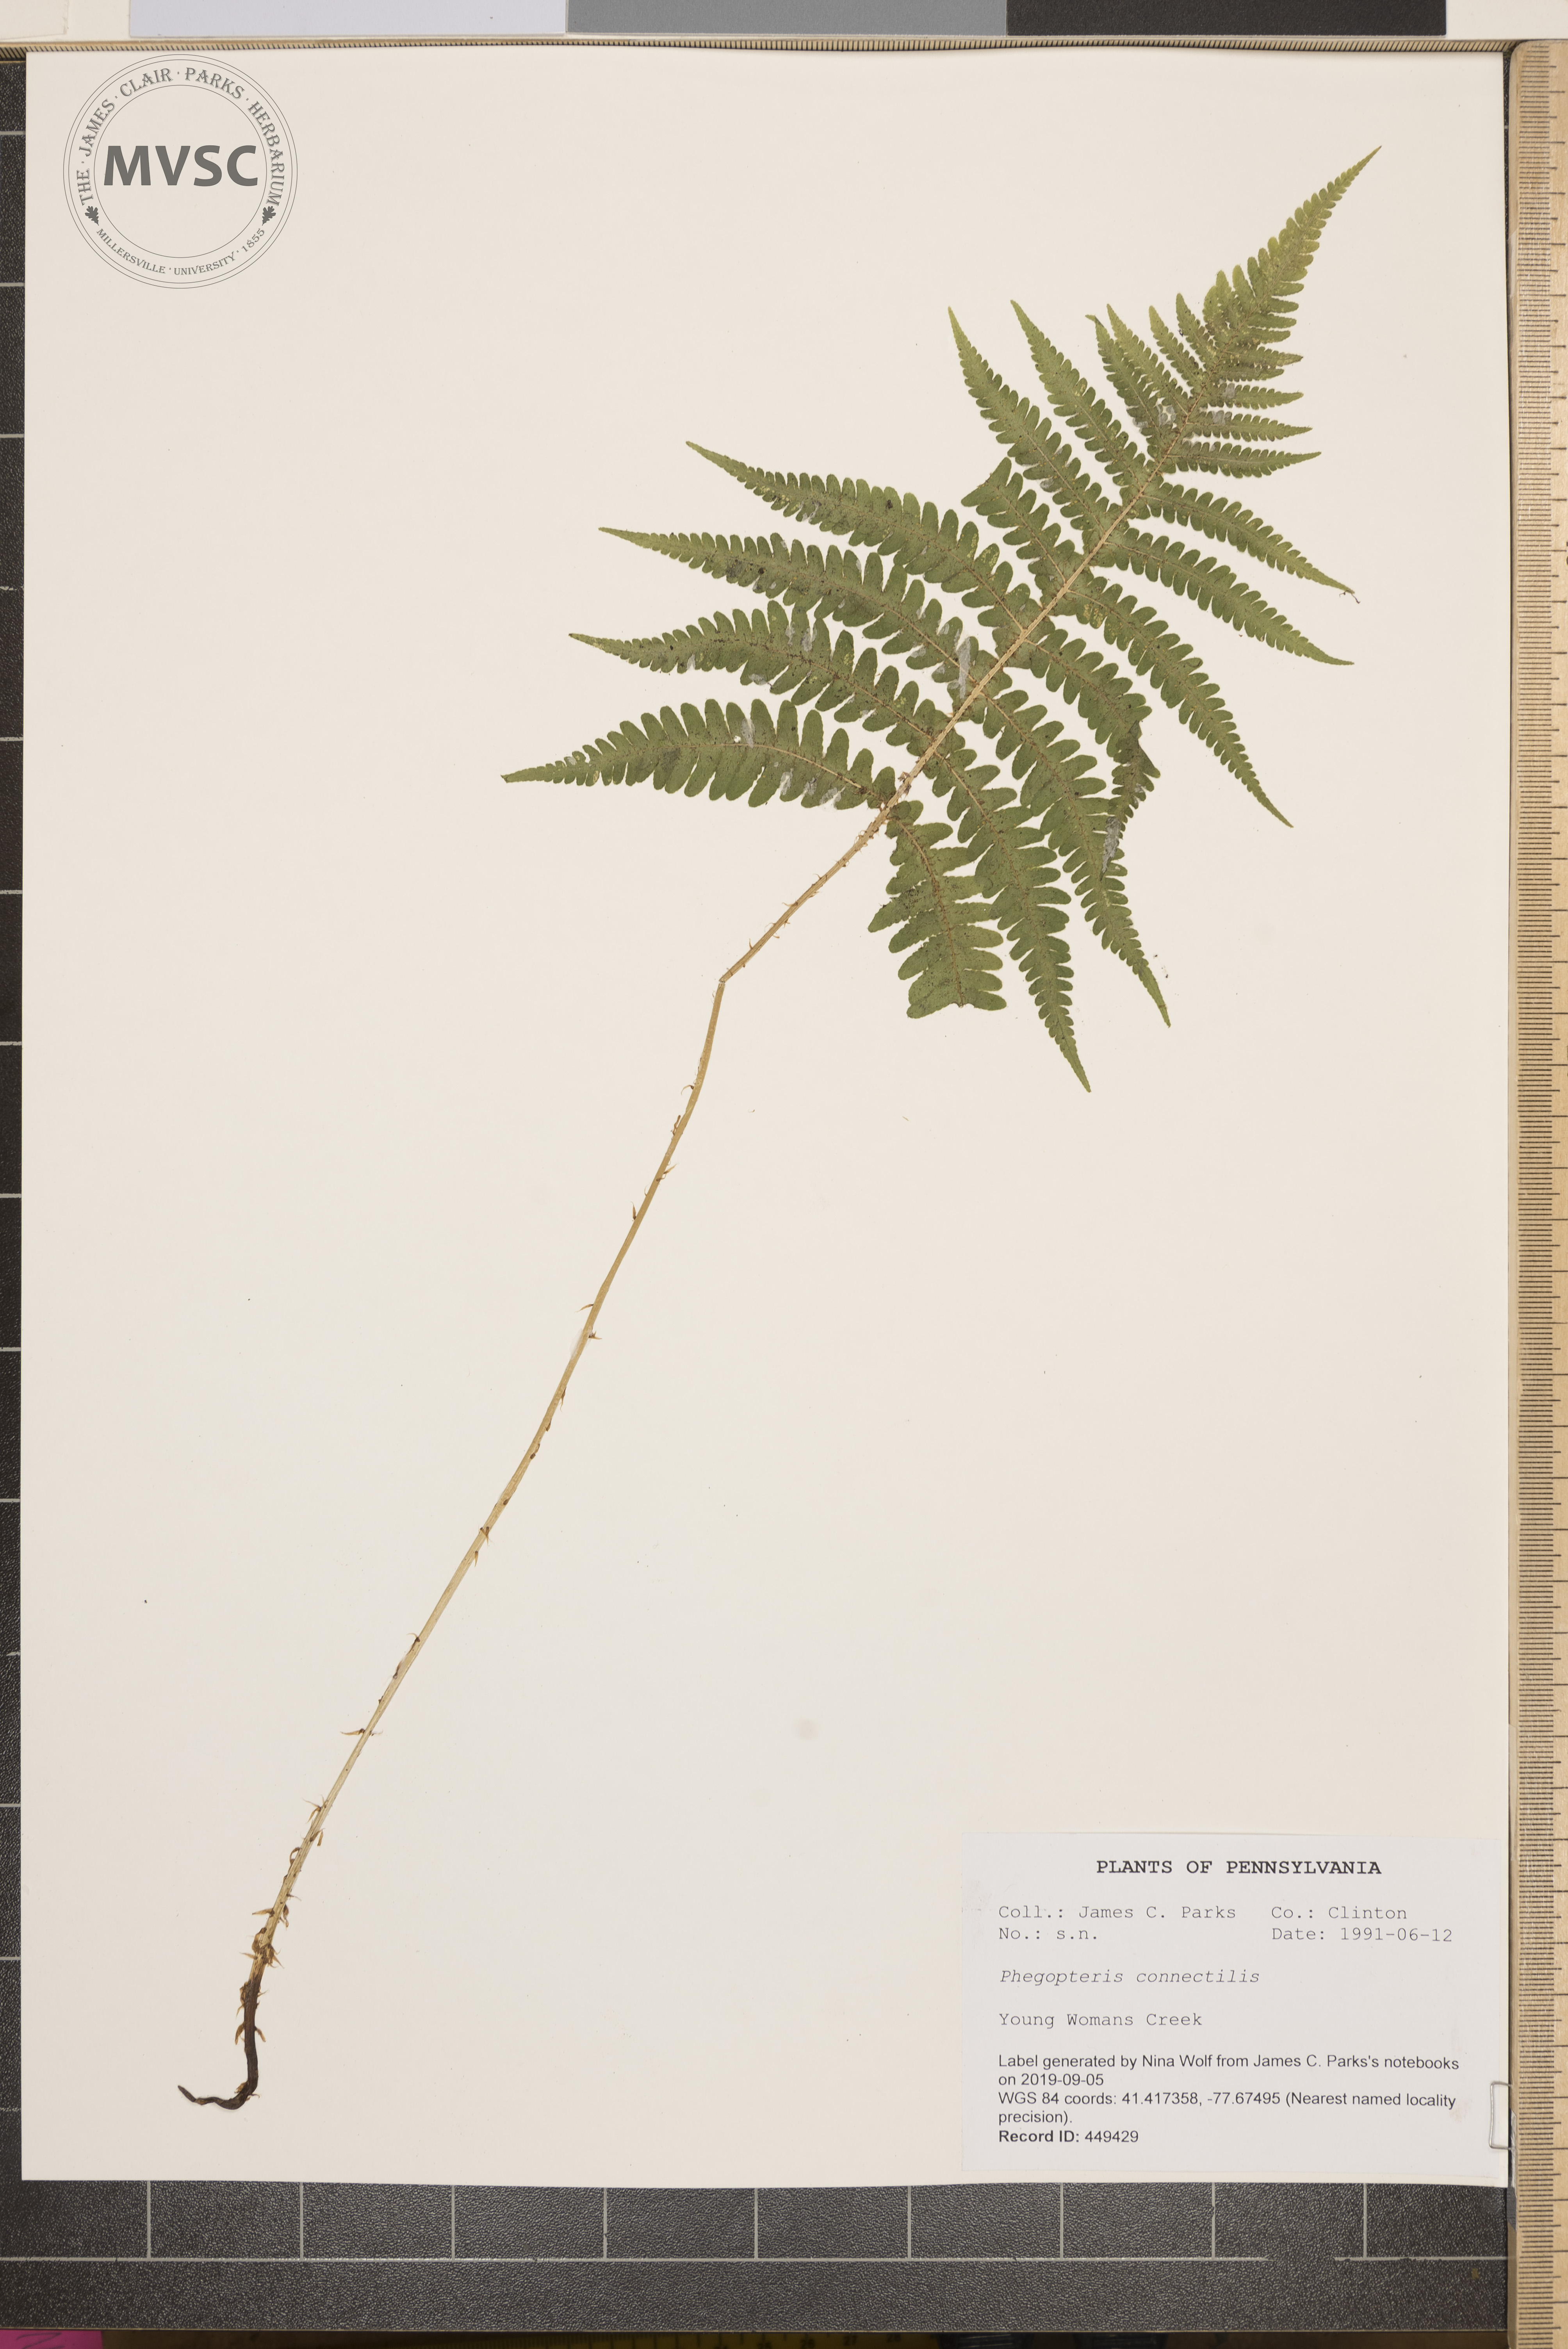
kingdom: Plantae
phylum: Tracheophyta
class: Polypodiopsida
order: Polypodiales
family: Thelypteridaceae
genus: Phegopteris
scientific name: Phegopteris connectilis
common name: Beech fern
